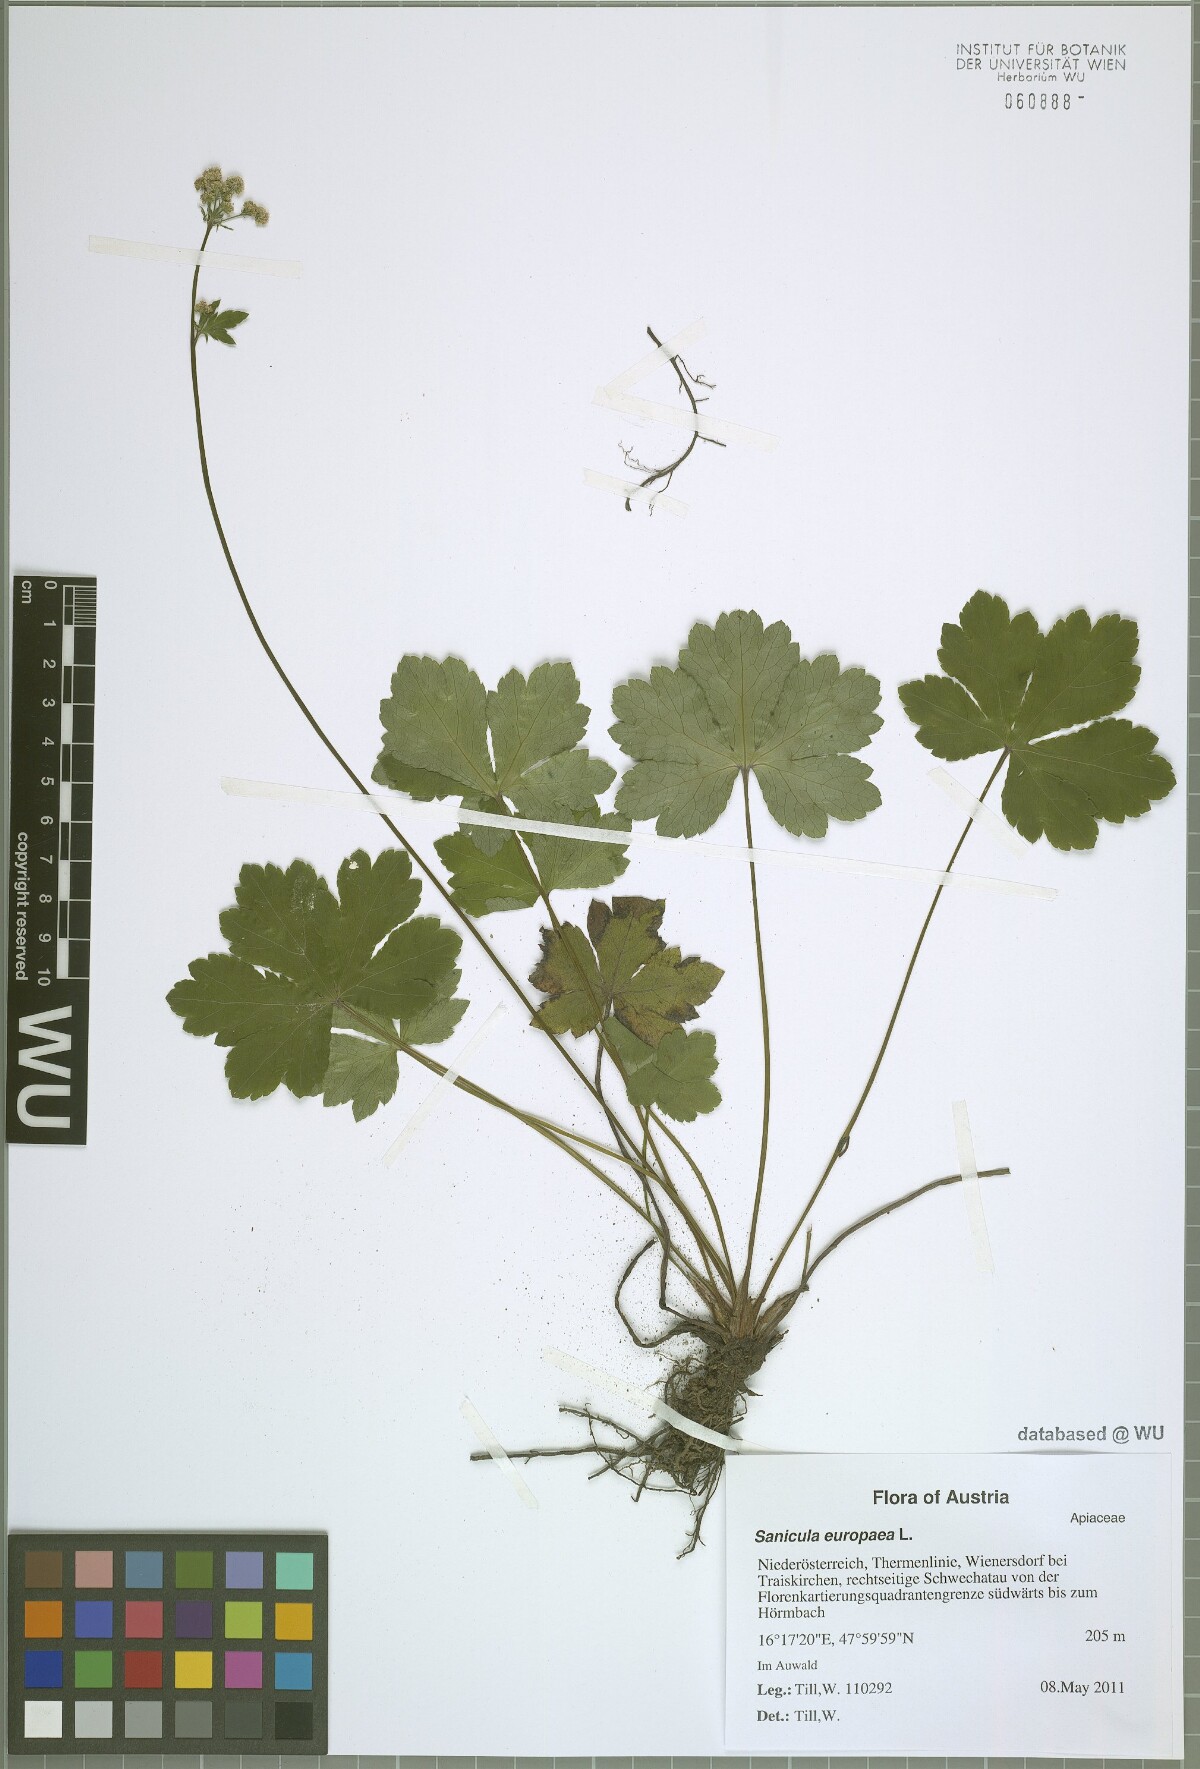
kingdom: Plantae
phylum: Tracheophyta
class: Magnoliopsida
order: Apiales
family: Apiaceae
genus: Sanicula
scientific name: Sanicula europaea
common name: Sanicle
